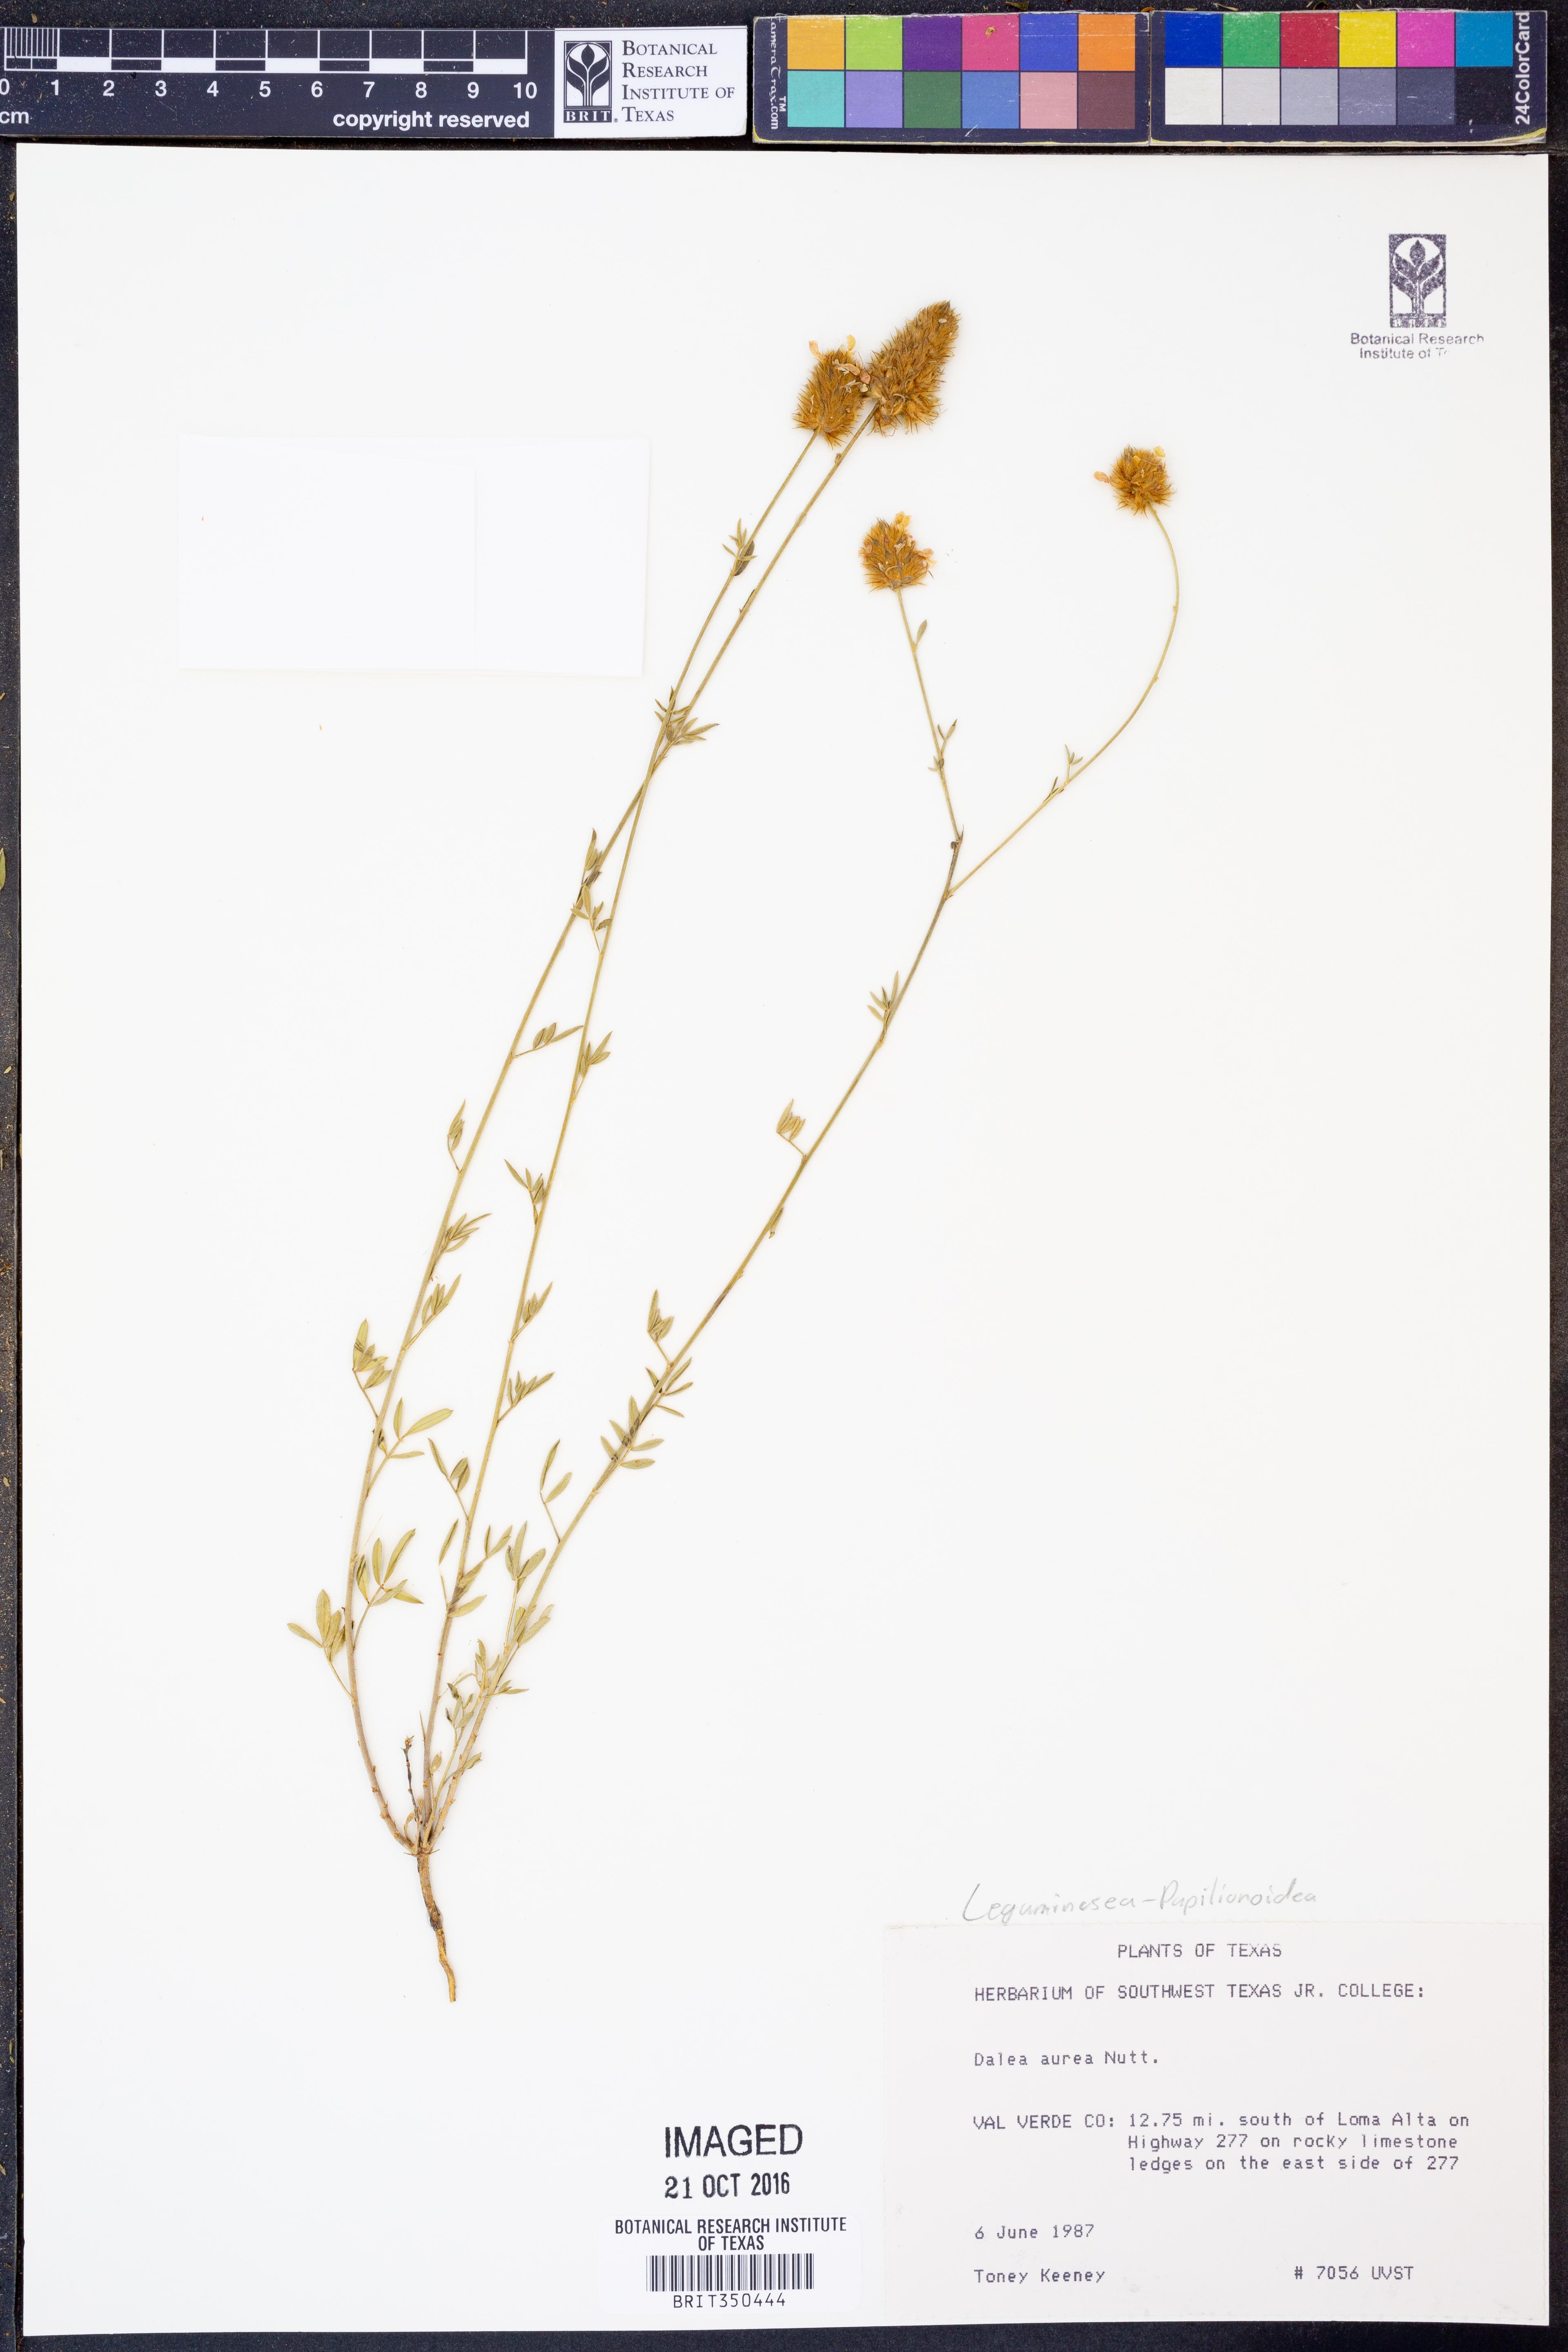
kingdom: Plantae
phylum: Tracheophyta
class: Magnoliopsida
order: Fabales
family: Fabaceae
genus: Dalea
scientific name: Dalea aurea
